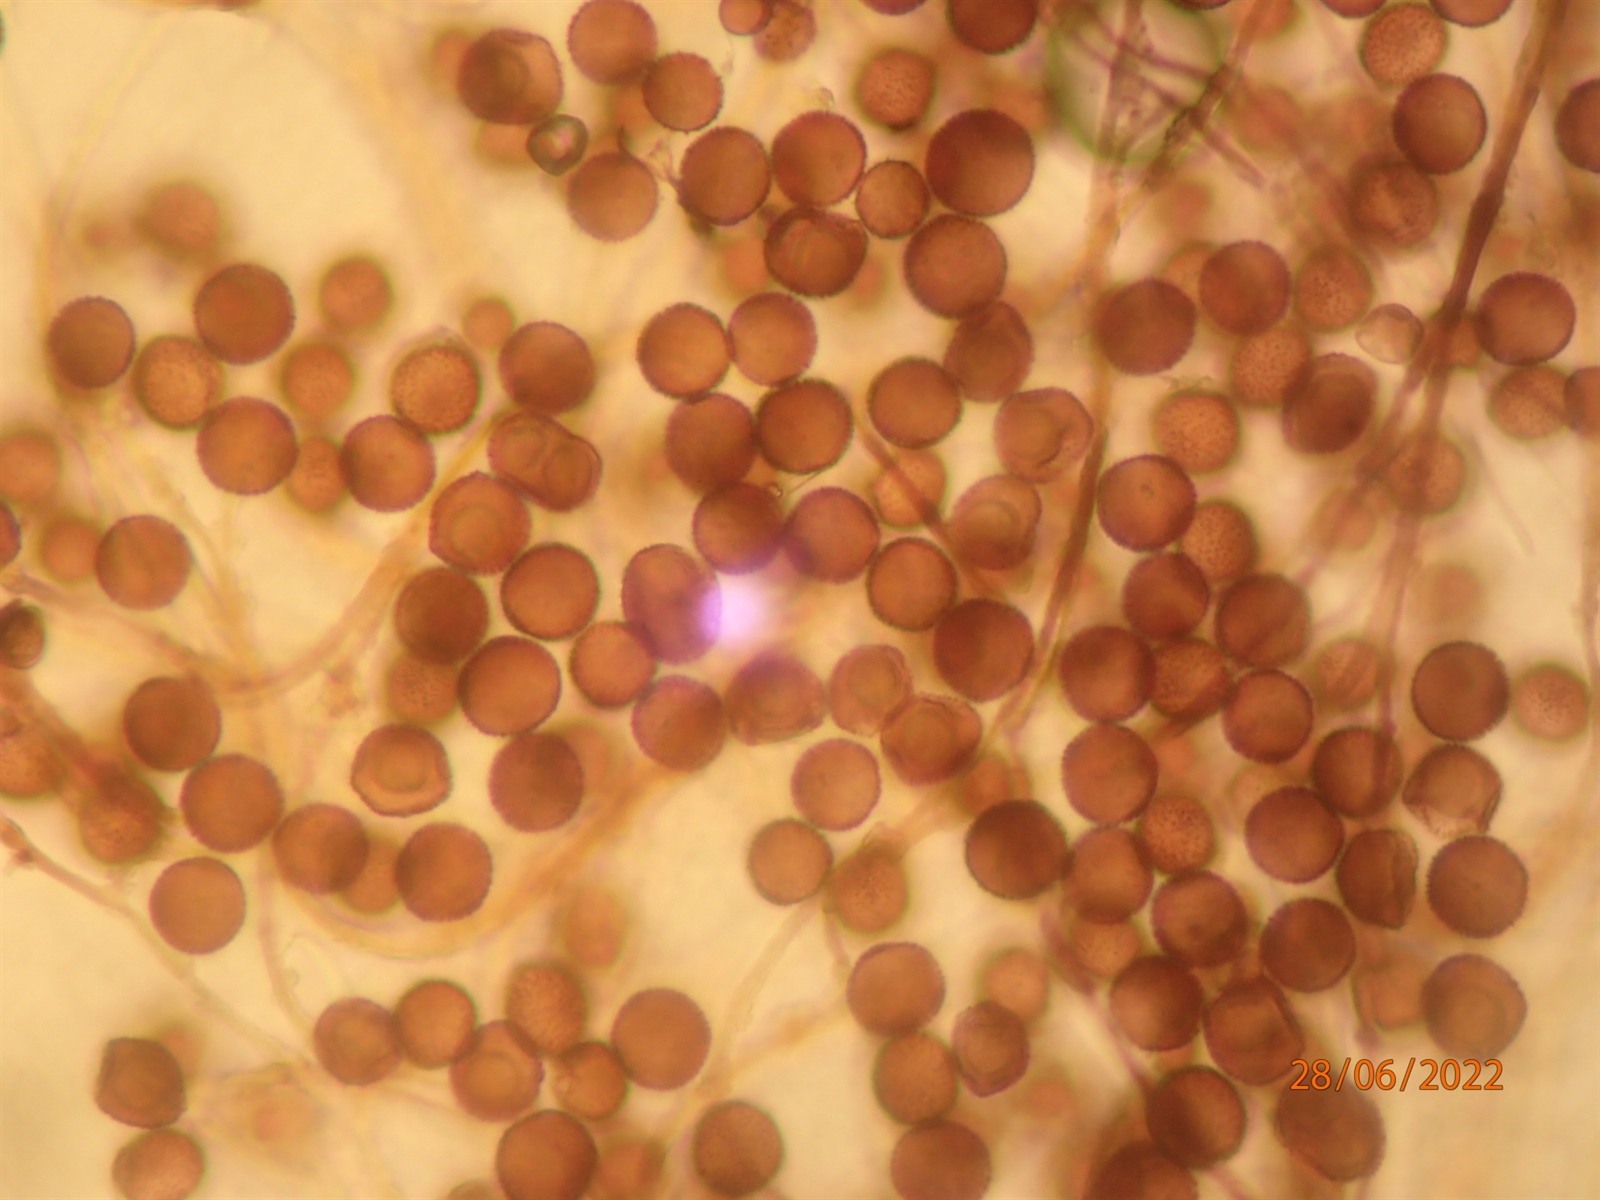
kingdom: Protozoa
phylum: Mycetozoa
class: Myxomycetes
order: Physarales
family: Didymiaceae
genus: Diderma
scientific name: Diderma meyerae
